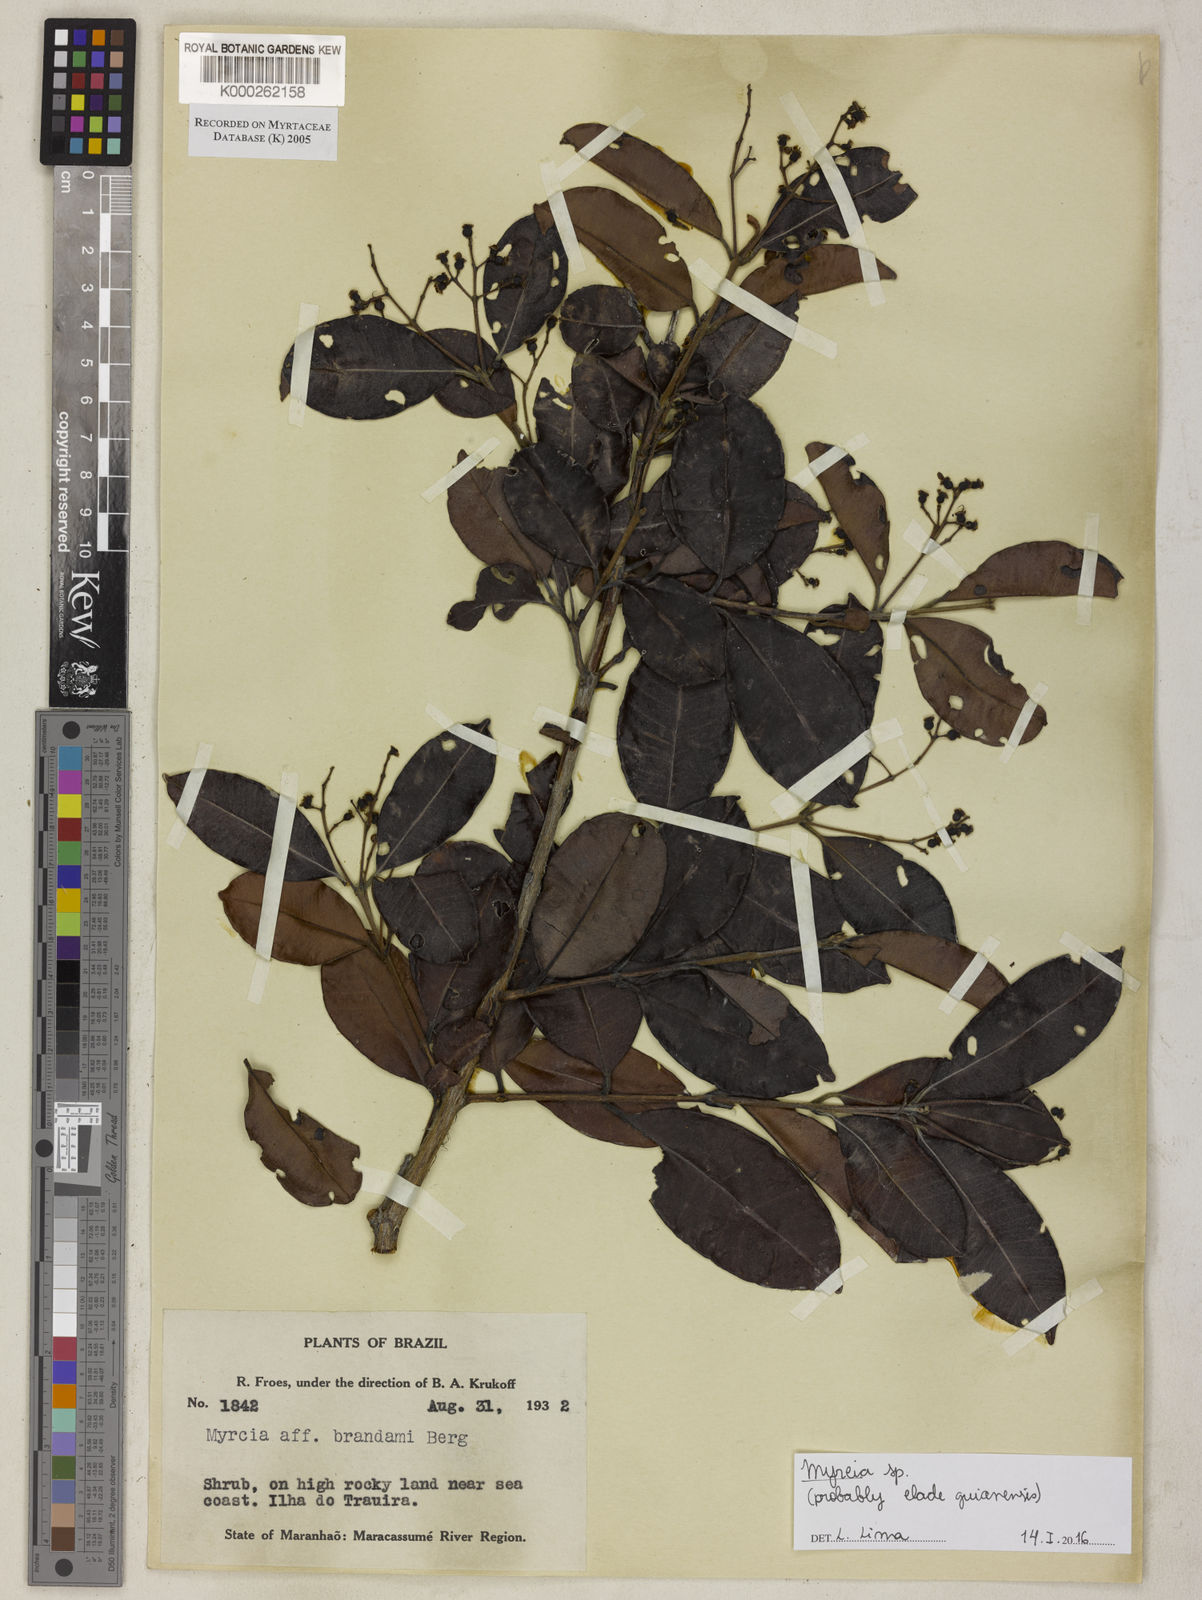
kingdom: Plantae
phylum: Tracheophyta
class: Magnoliopsida
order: Myrtales
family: Myrtaceae
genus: Myrcia
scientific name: Myrcia splendens
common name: Surinam cherry
